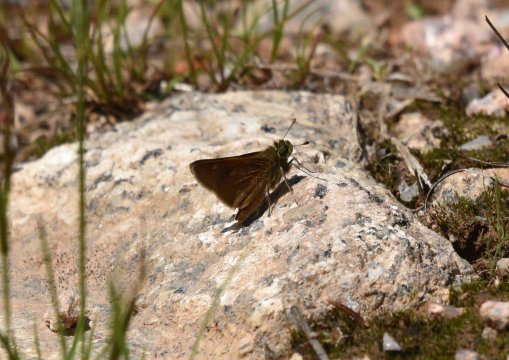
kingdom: Animalia
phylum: Arthropoda
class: Insecta
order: Lepidoptera
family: Hesperiidae
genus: Polites
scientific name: Polites themistocles
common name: Tawny-edged Skipper
